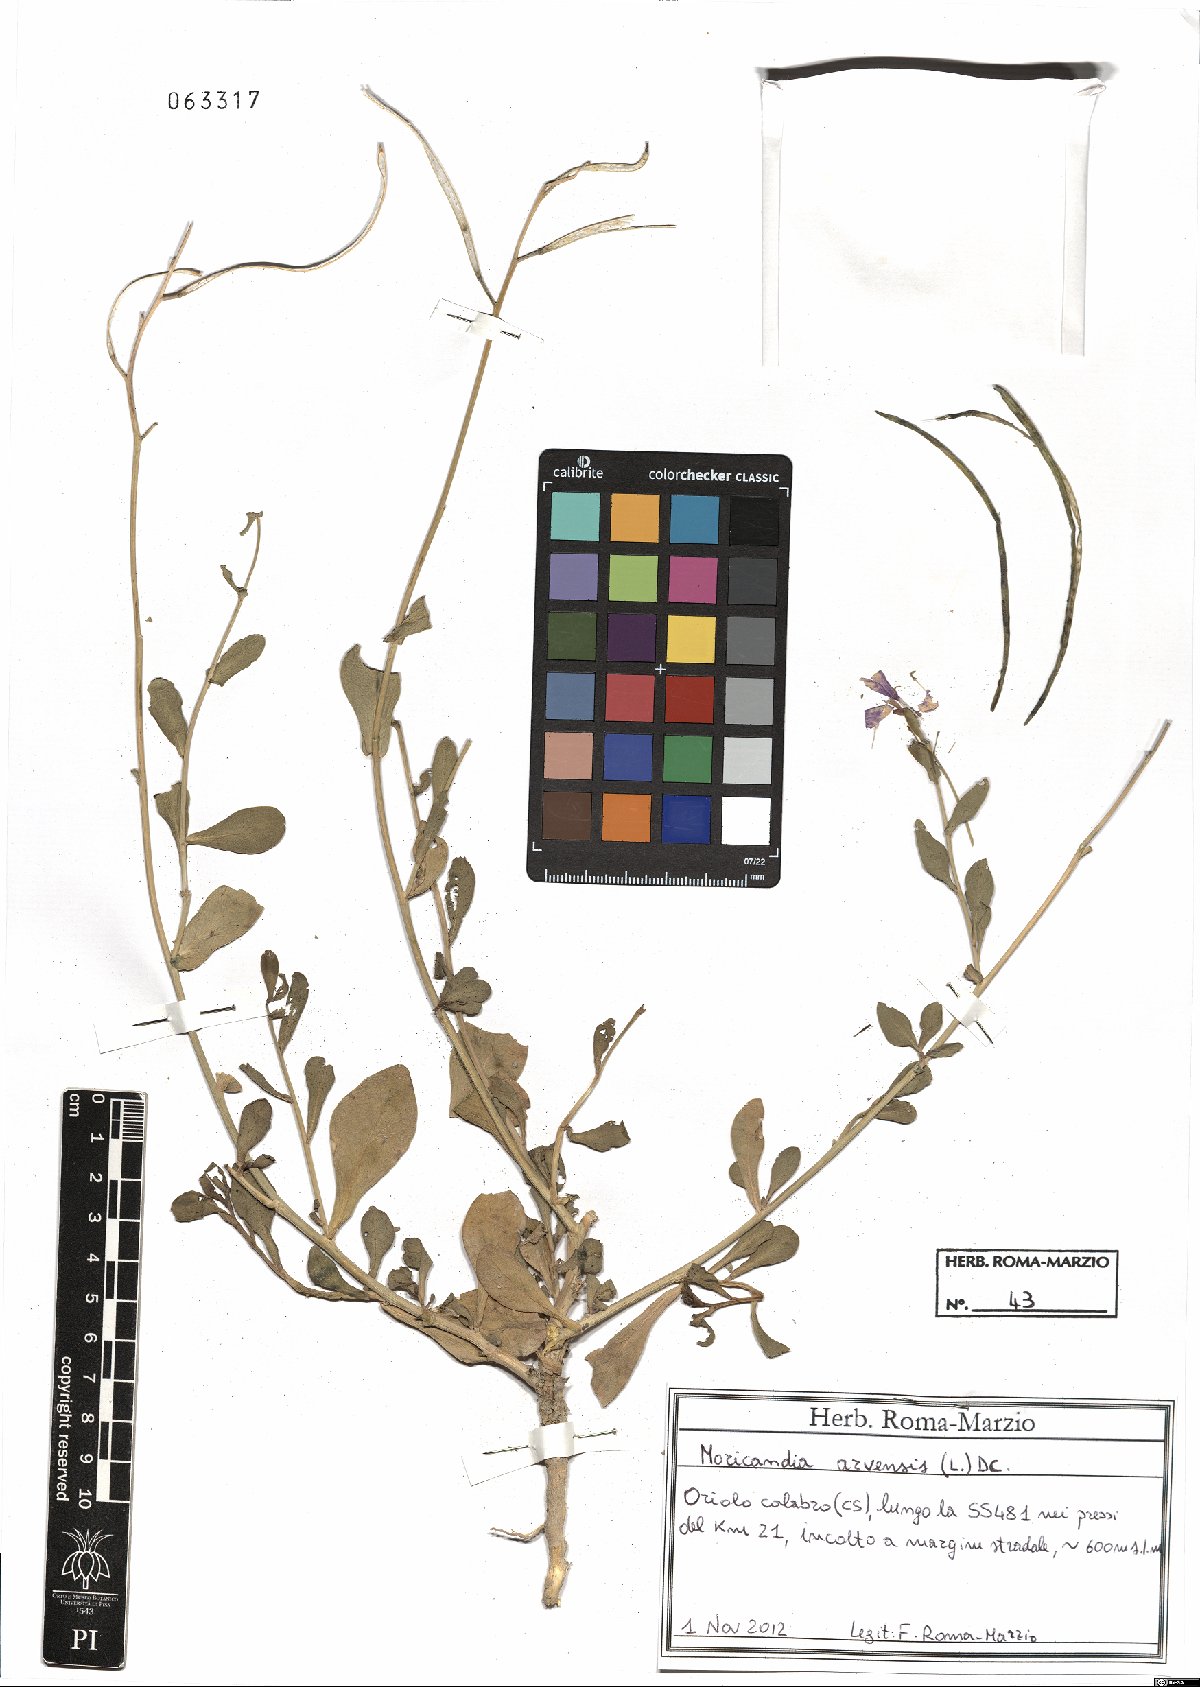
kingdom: Plantae
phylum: Tracheophyta
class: Magnoliopsida
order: Brassicales
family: Brassicaceae
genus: Moricandia
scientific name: Moricandia arvensis
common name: Purple mistress
